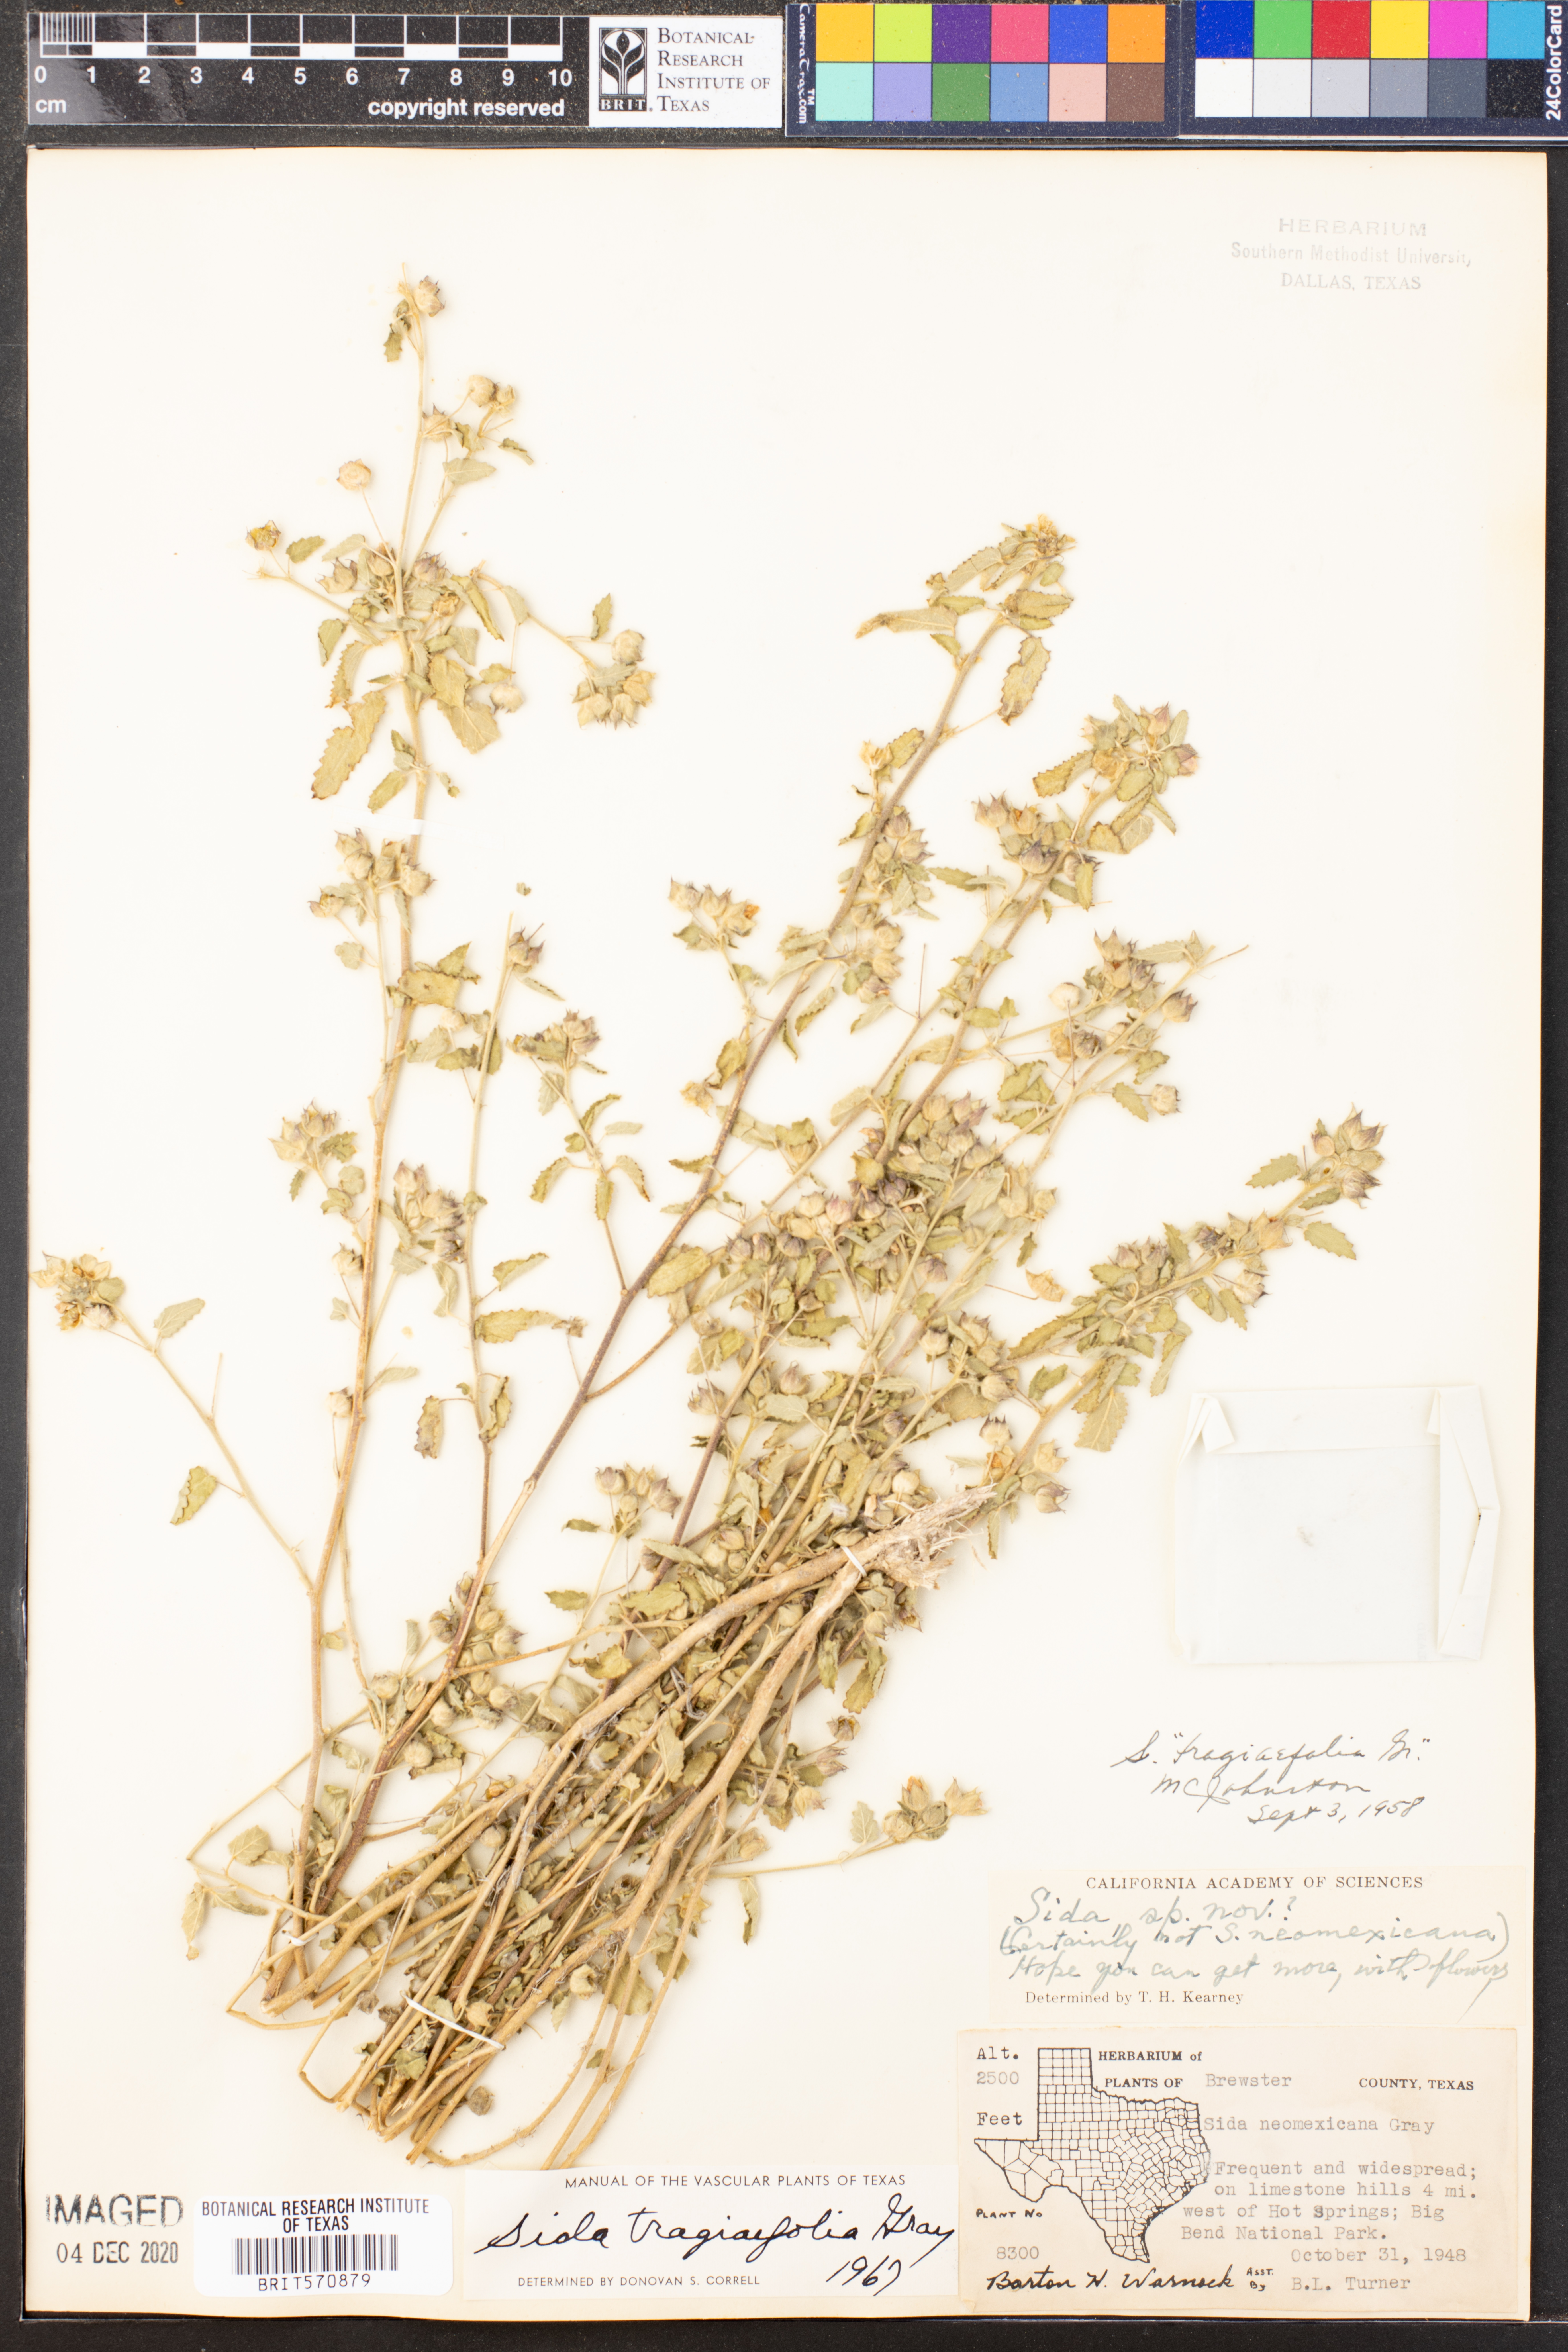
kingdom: Plantae
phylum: Tracheophyta
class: Magnoliopsida
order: Malvales
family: Malvaceae
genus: Sida
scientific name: Sida tragiifolia
